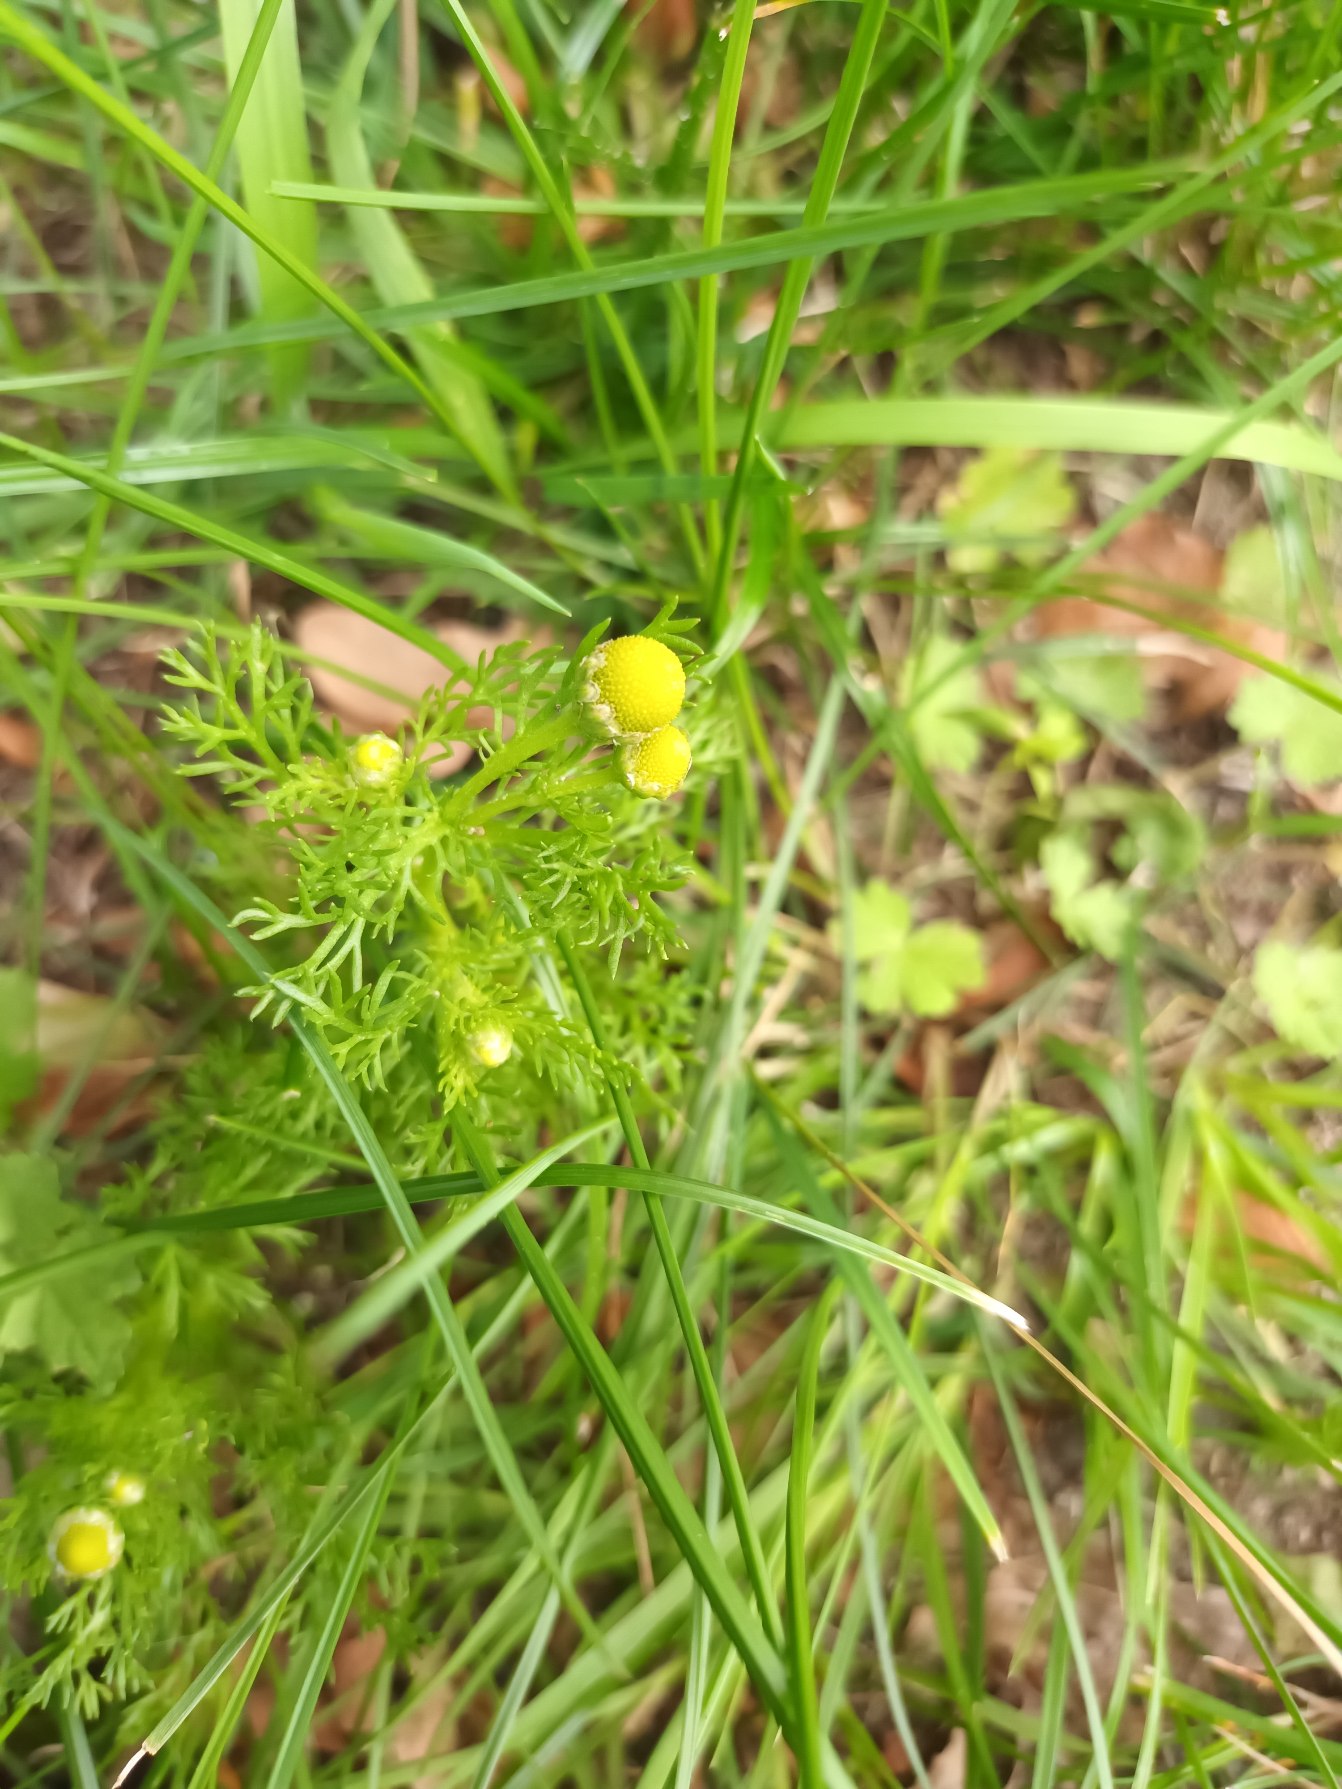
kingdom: Plantae
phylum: Tracheophyta
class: Magnoliopsida
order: Asterales
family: Asteraceae
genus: Matricaria
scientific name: Matricaria discoidea
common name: Skive-kamille
